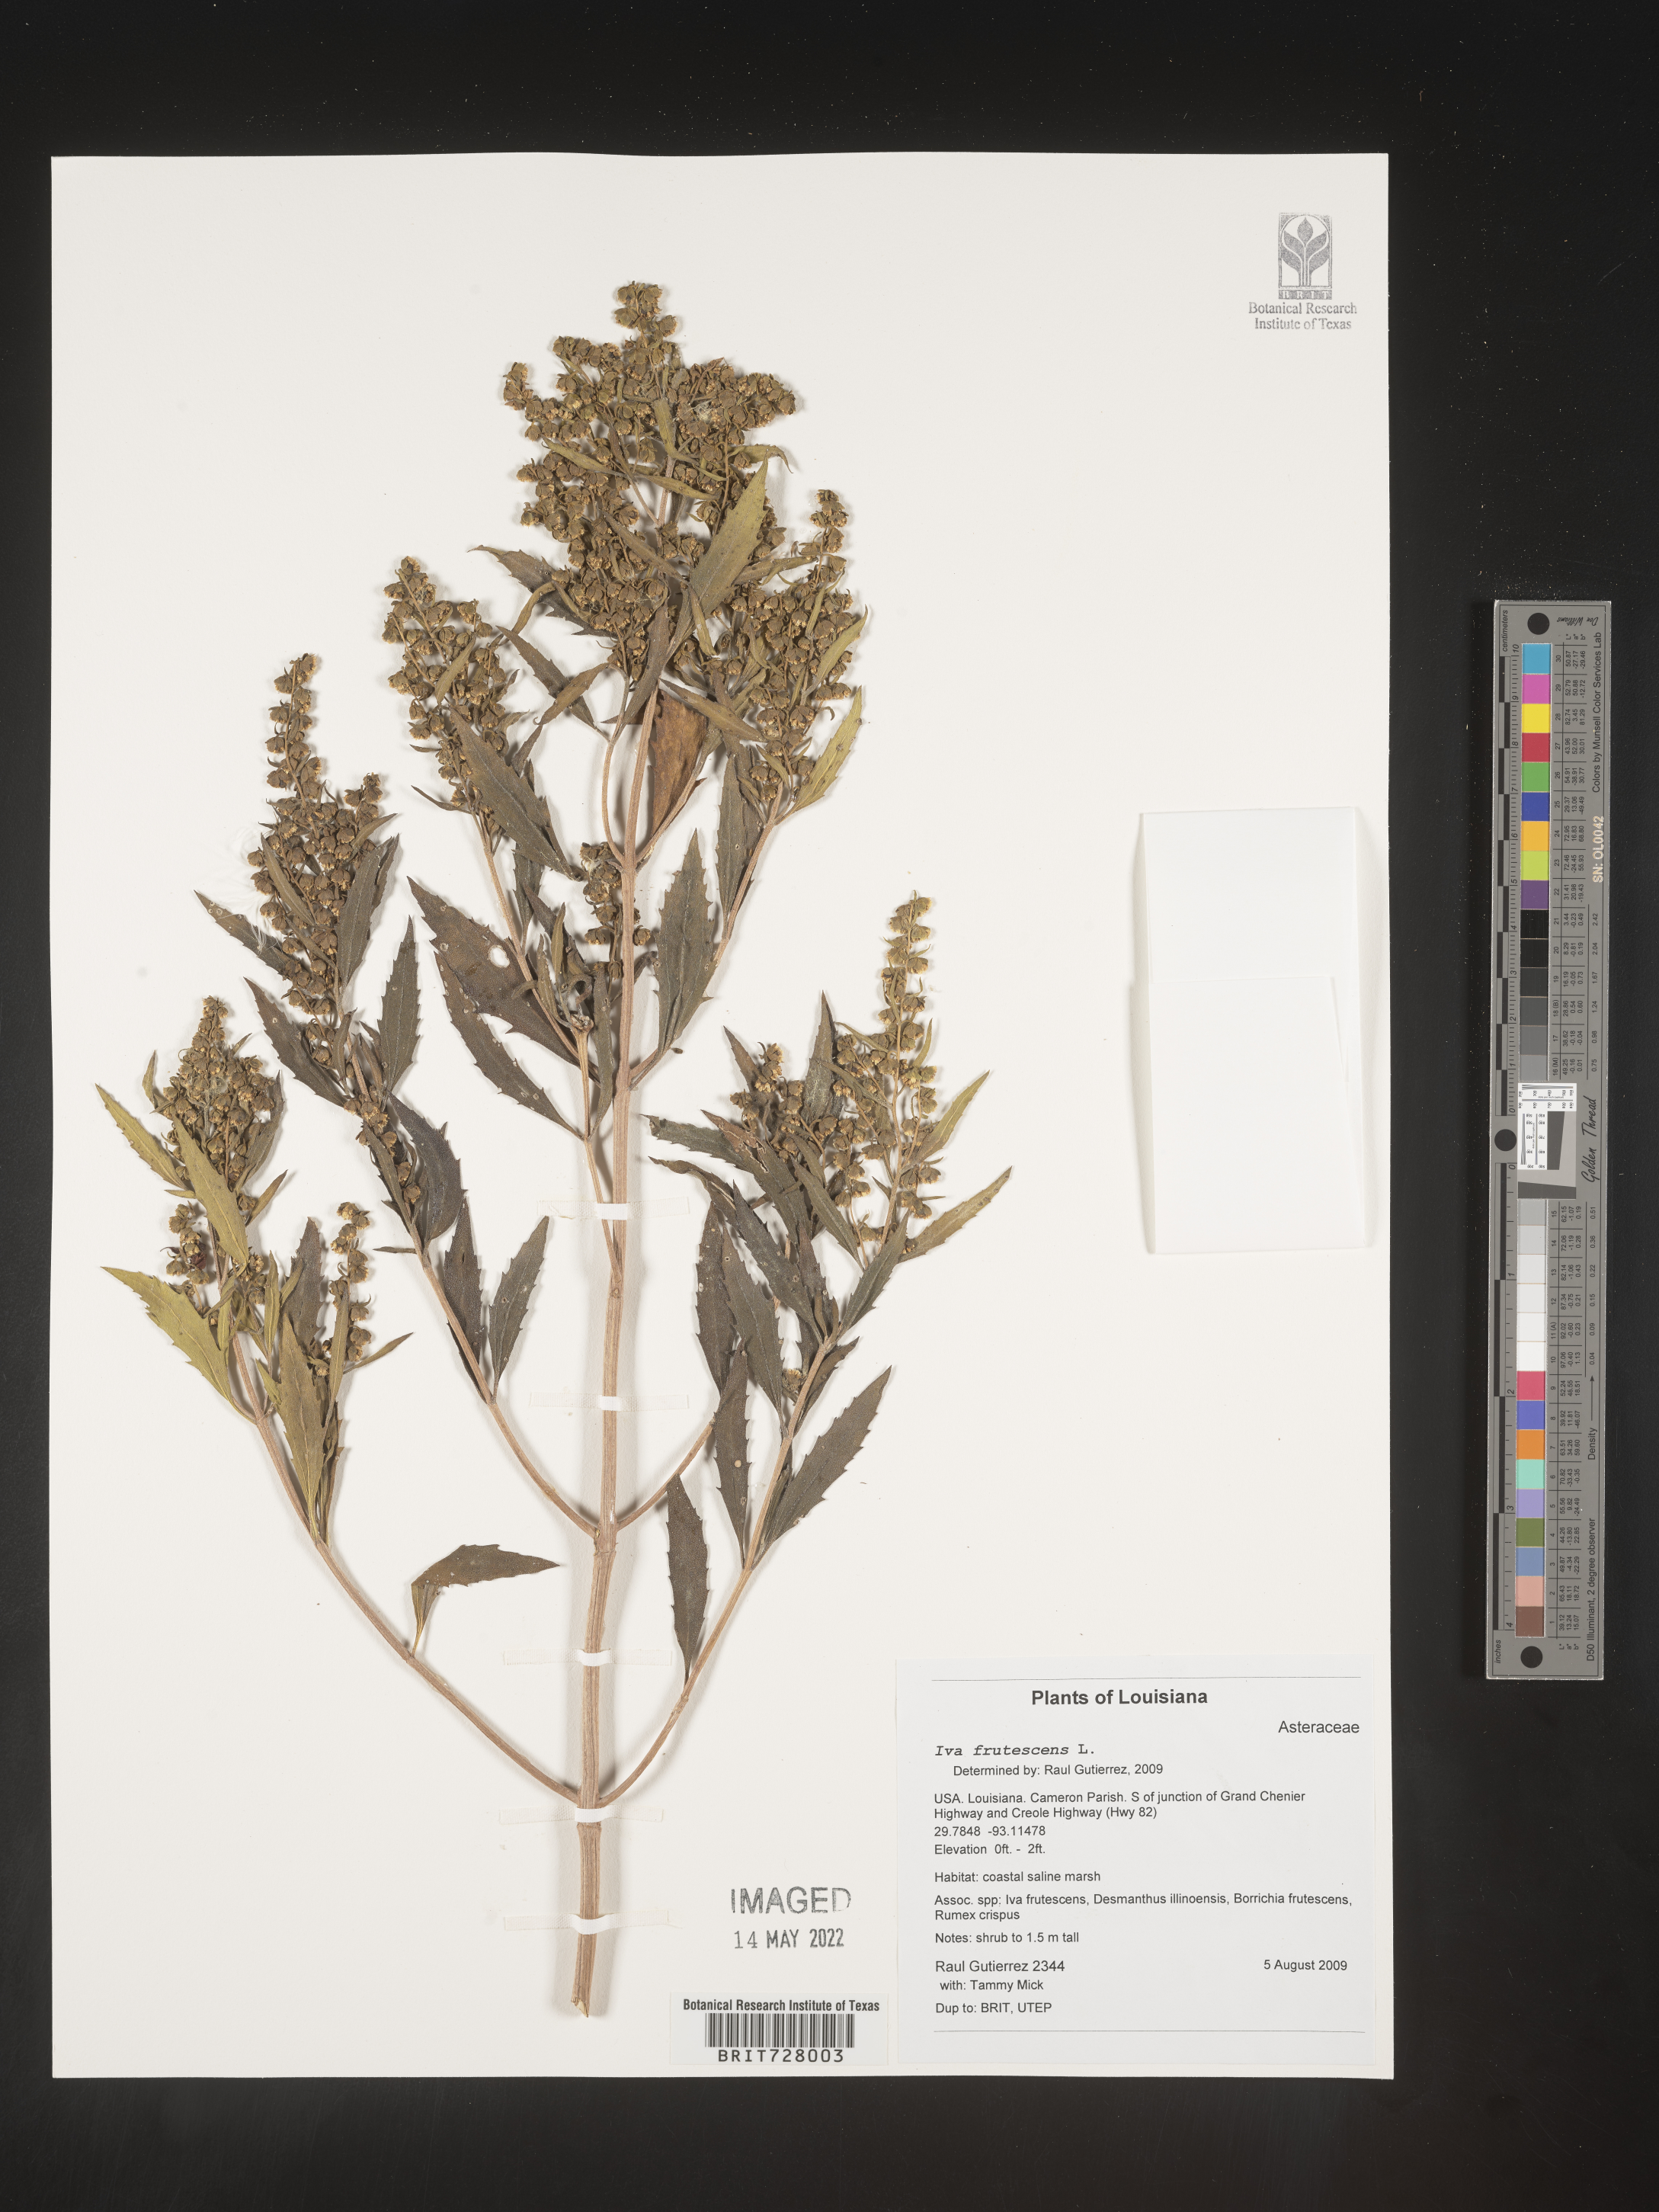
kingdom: Plantae
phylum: Tracheophyta
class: Magnoliopsida
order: Asterales
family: Asteraceae
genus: Iva
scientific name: Iva frutescens
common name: Big-leaved marsh-elder
